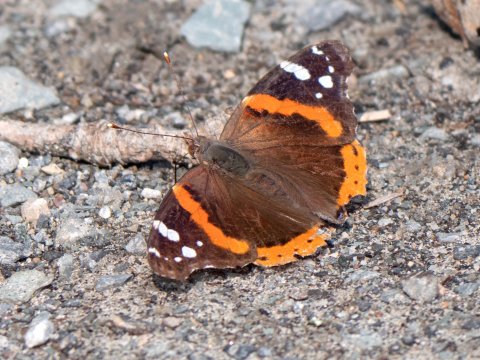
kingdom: Animalia
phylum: Arthropoda
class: Insecta
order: Lepidoptera
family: Nymphalidae
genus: Vanessa
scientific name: Vanessa atalanta
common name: Red Admiral
